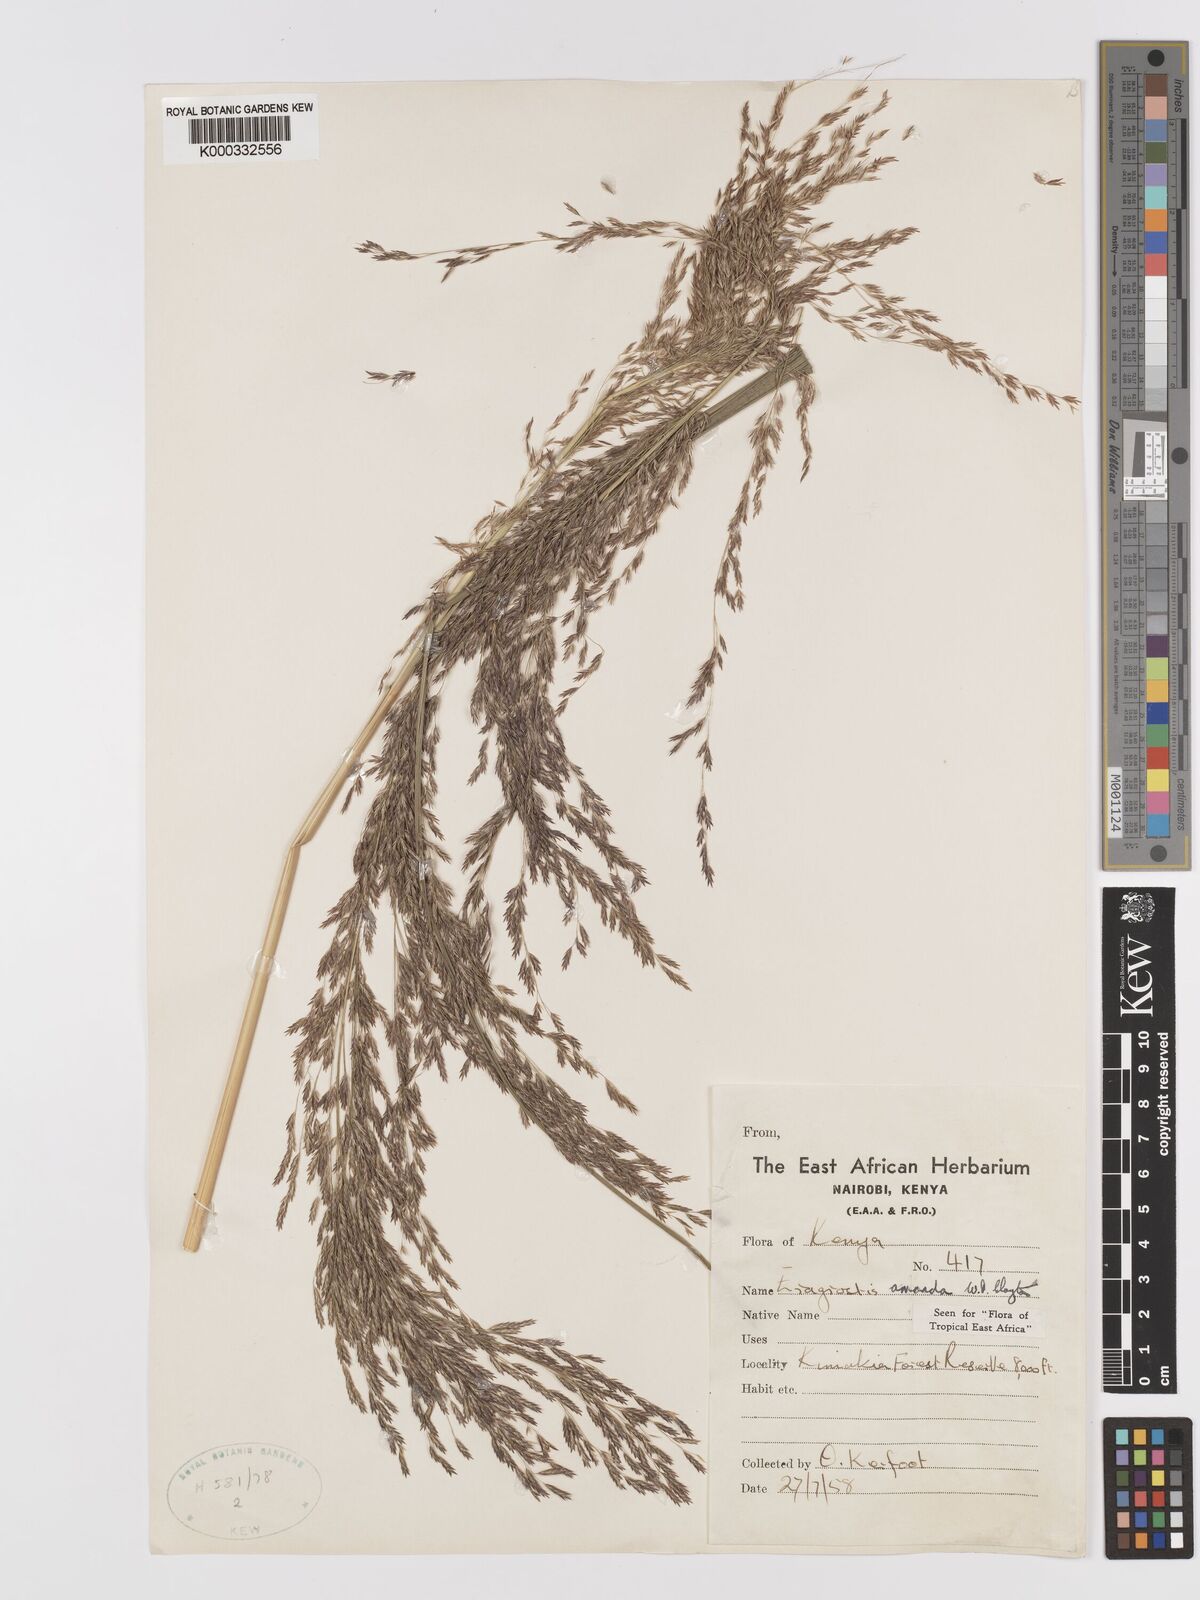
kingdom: Plantae
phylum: Tracheophyta
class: Liliopsida
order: Poales
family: Poaceae
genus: Eragrostis
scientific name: Eragrostis amanda
